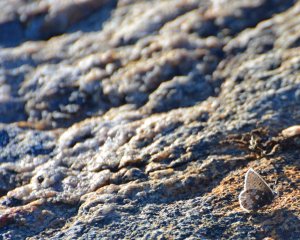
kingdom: Animalia
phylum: Arthropoda
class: Insecta
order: Lepidoptera
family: Lycaenidae
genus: Agriades
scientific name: Agriades glandon
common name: Arctic Blue
